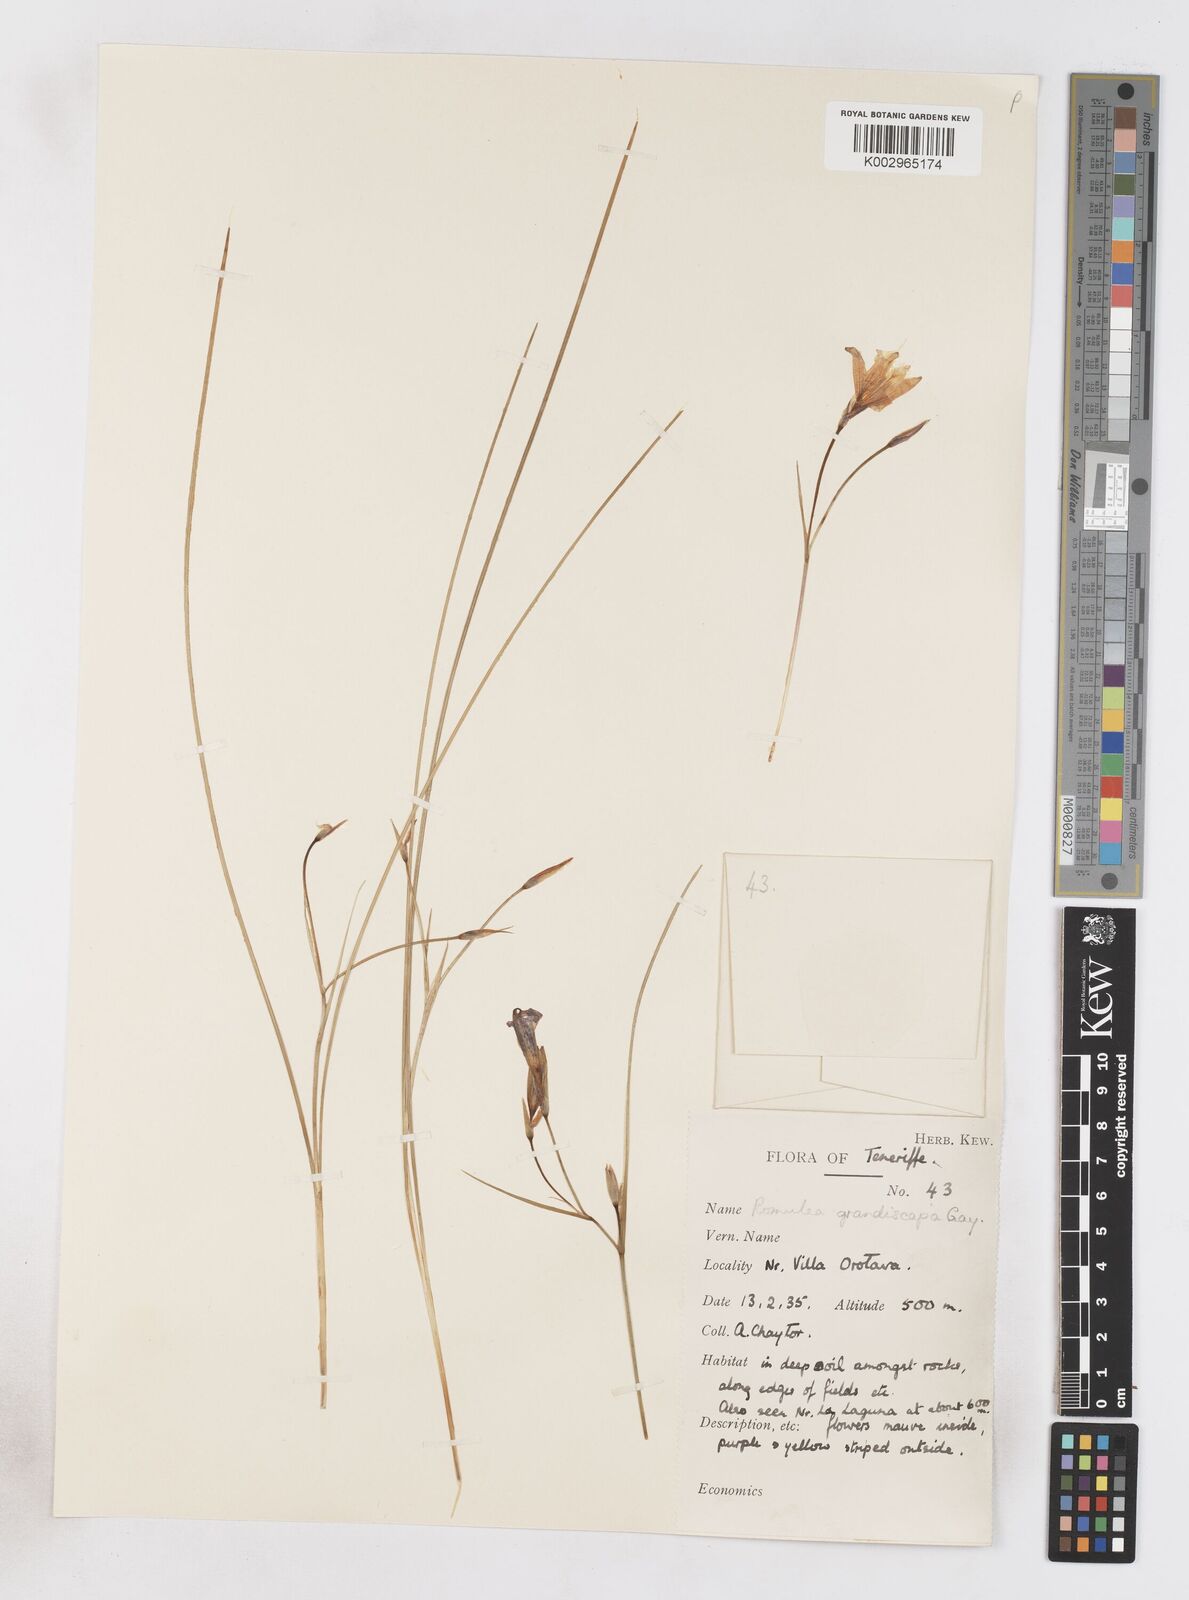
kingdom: Plantae
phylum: Tracheophyta
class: Liliopsida
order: Asparagales
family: Iridaceae
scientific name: Iridaceae
